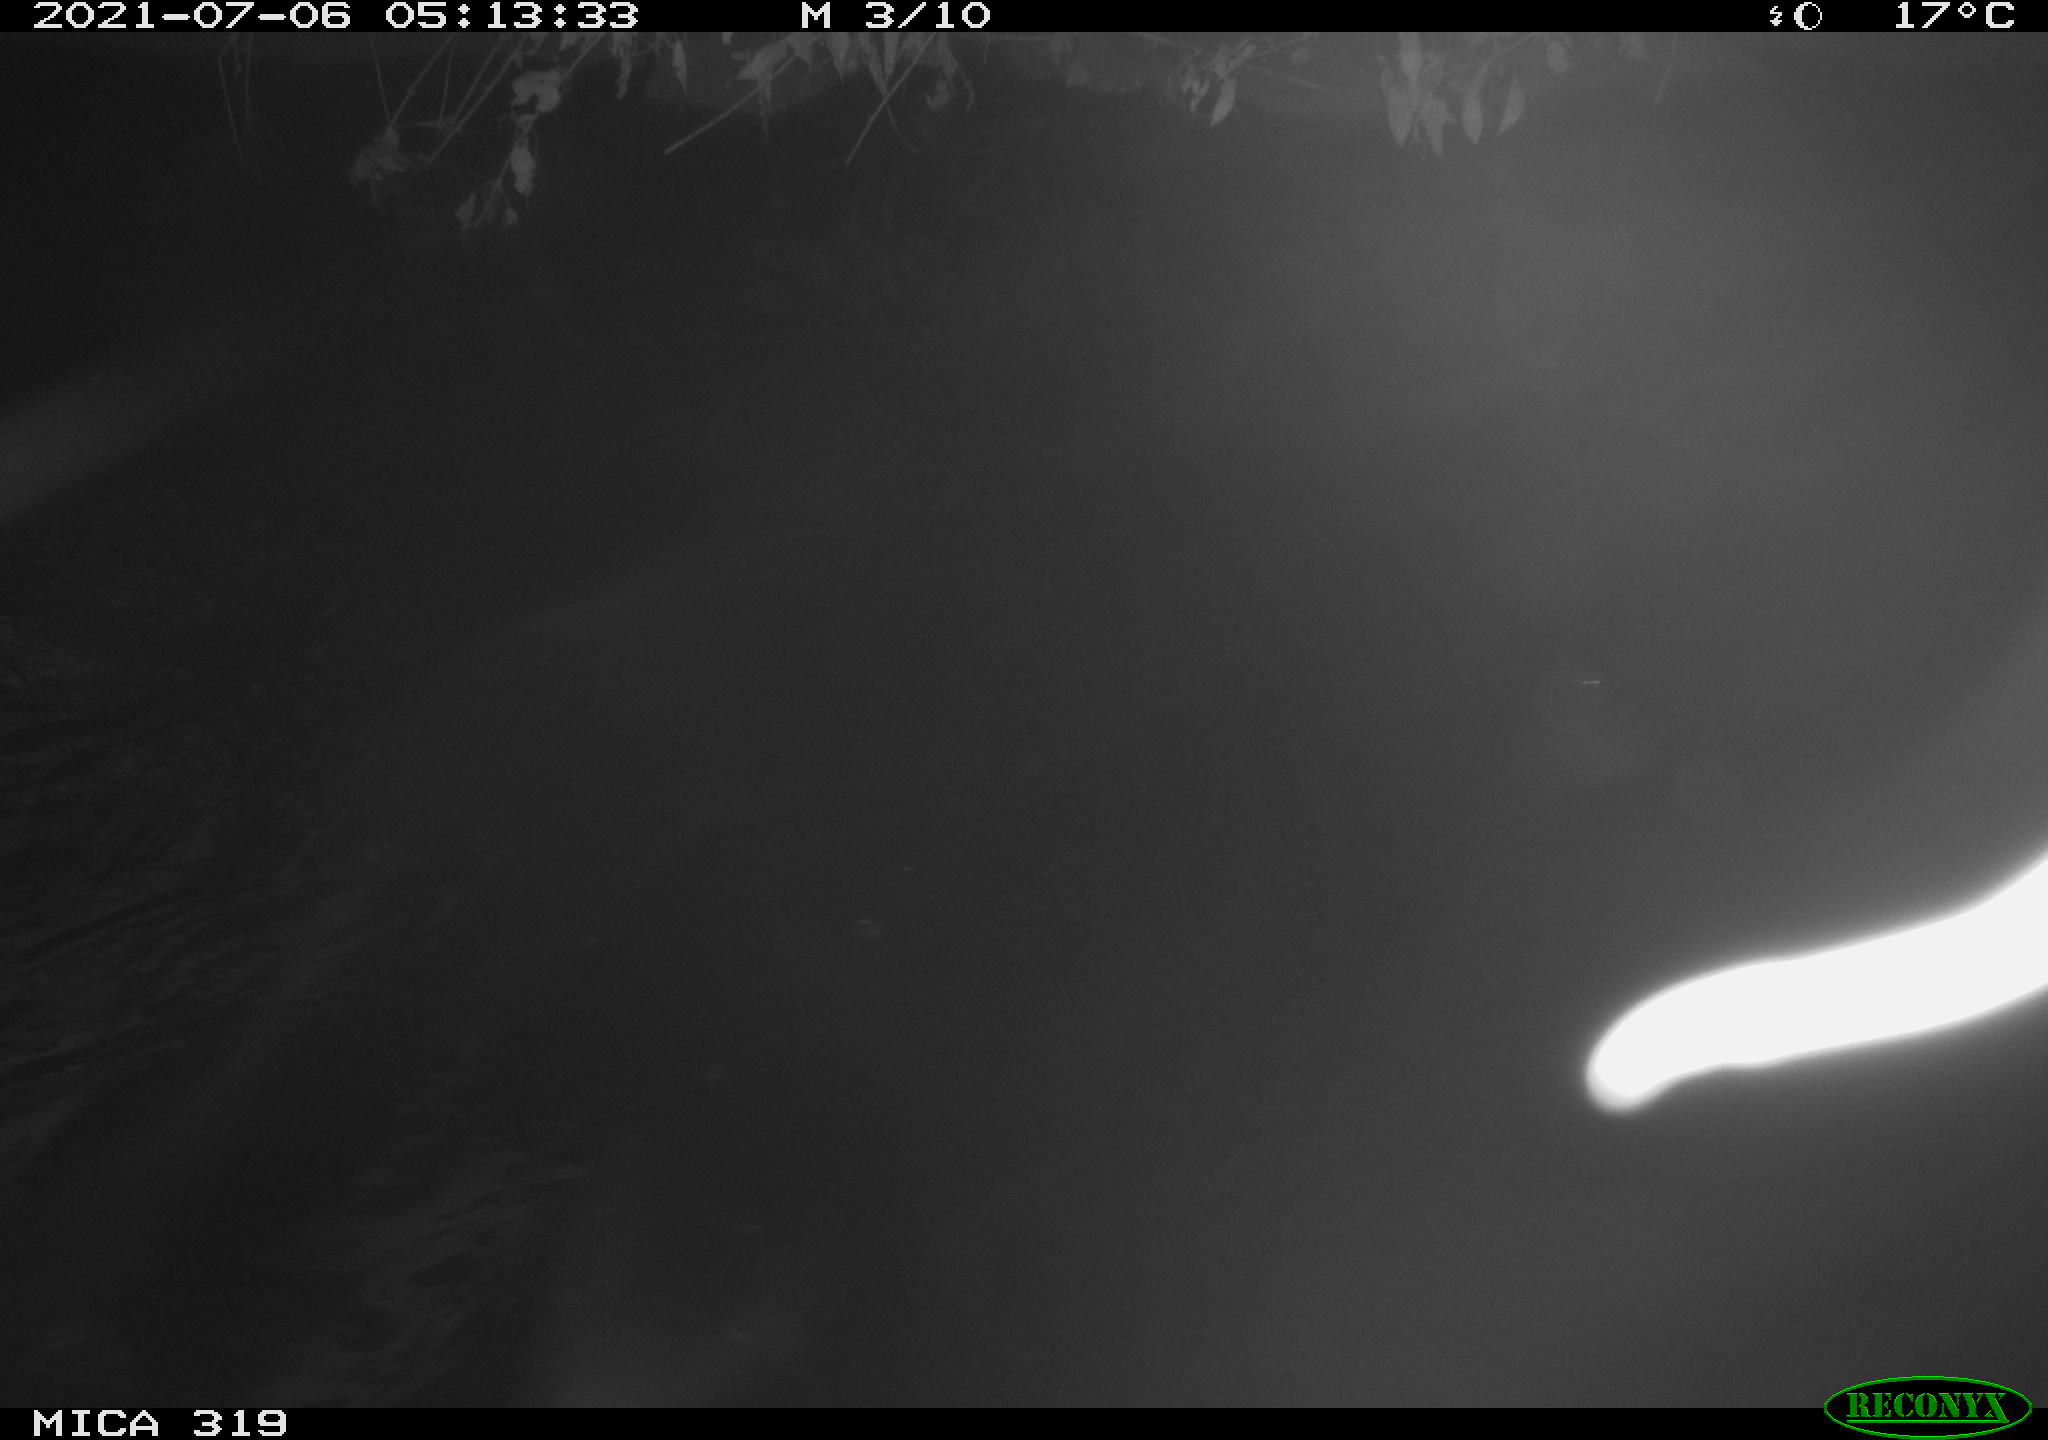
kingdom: Animalia
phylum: Chordata
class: Aves
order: Anseriformes
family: Anatidae
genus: Anas
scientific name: Anas platyrhynchos
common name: Mallard
